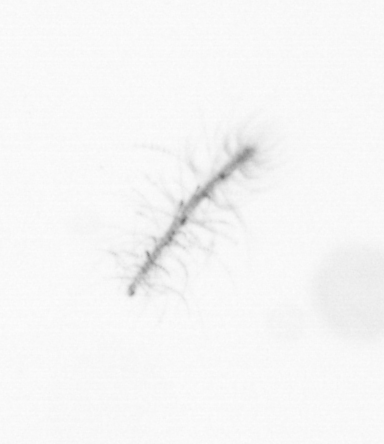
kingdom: Chromista
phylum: Ochrophyta
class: Bacillariophyceae
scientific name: Bacillariophyceae
